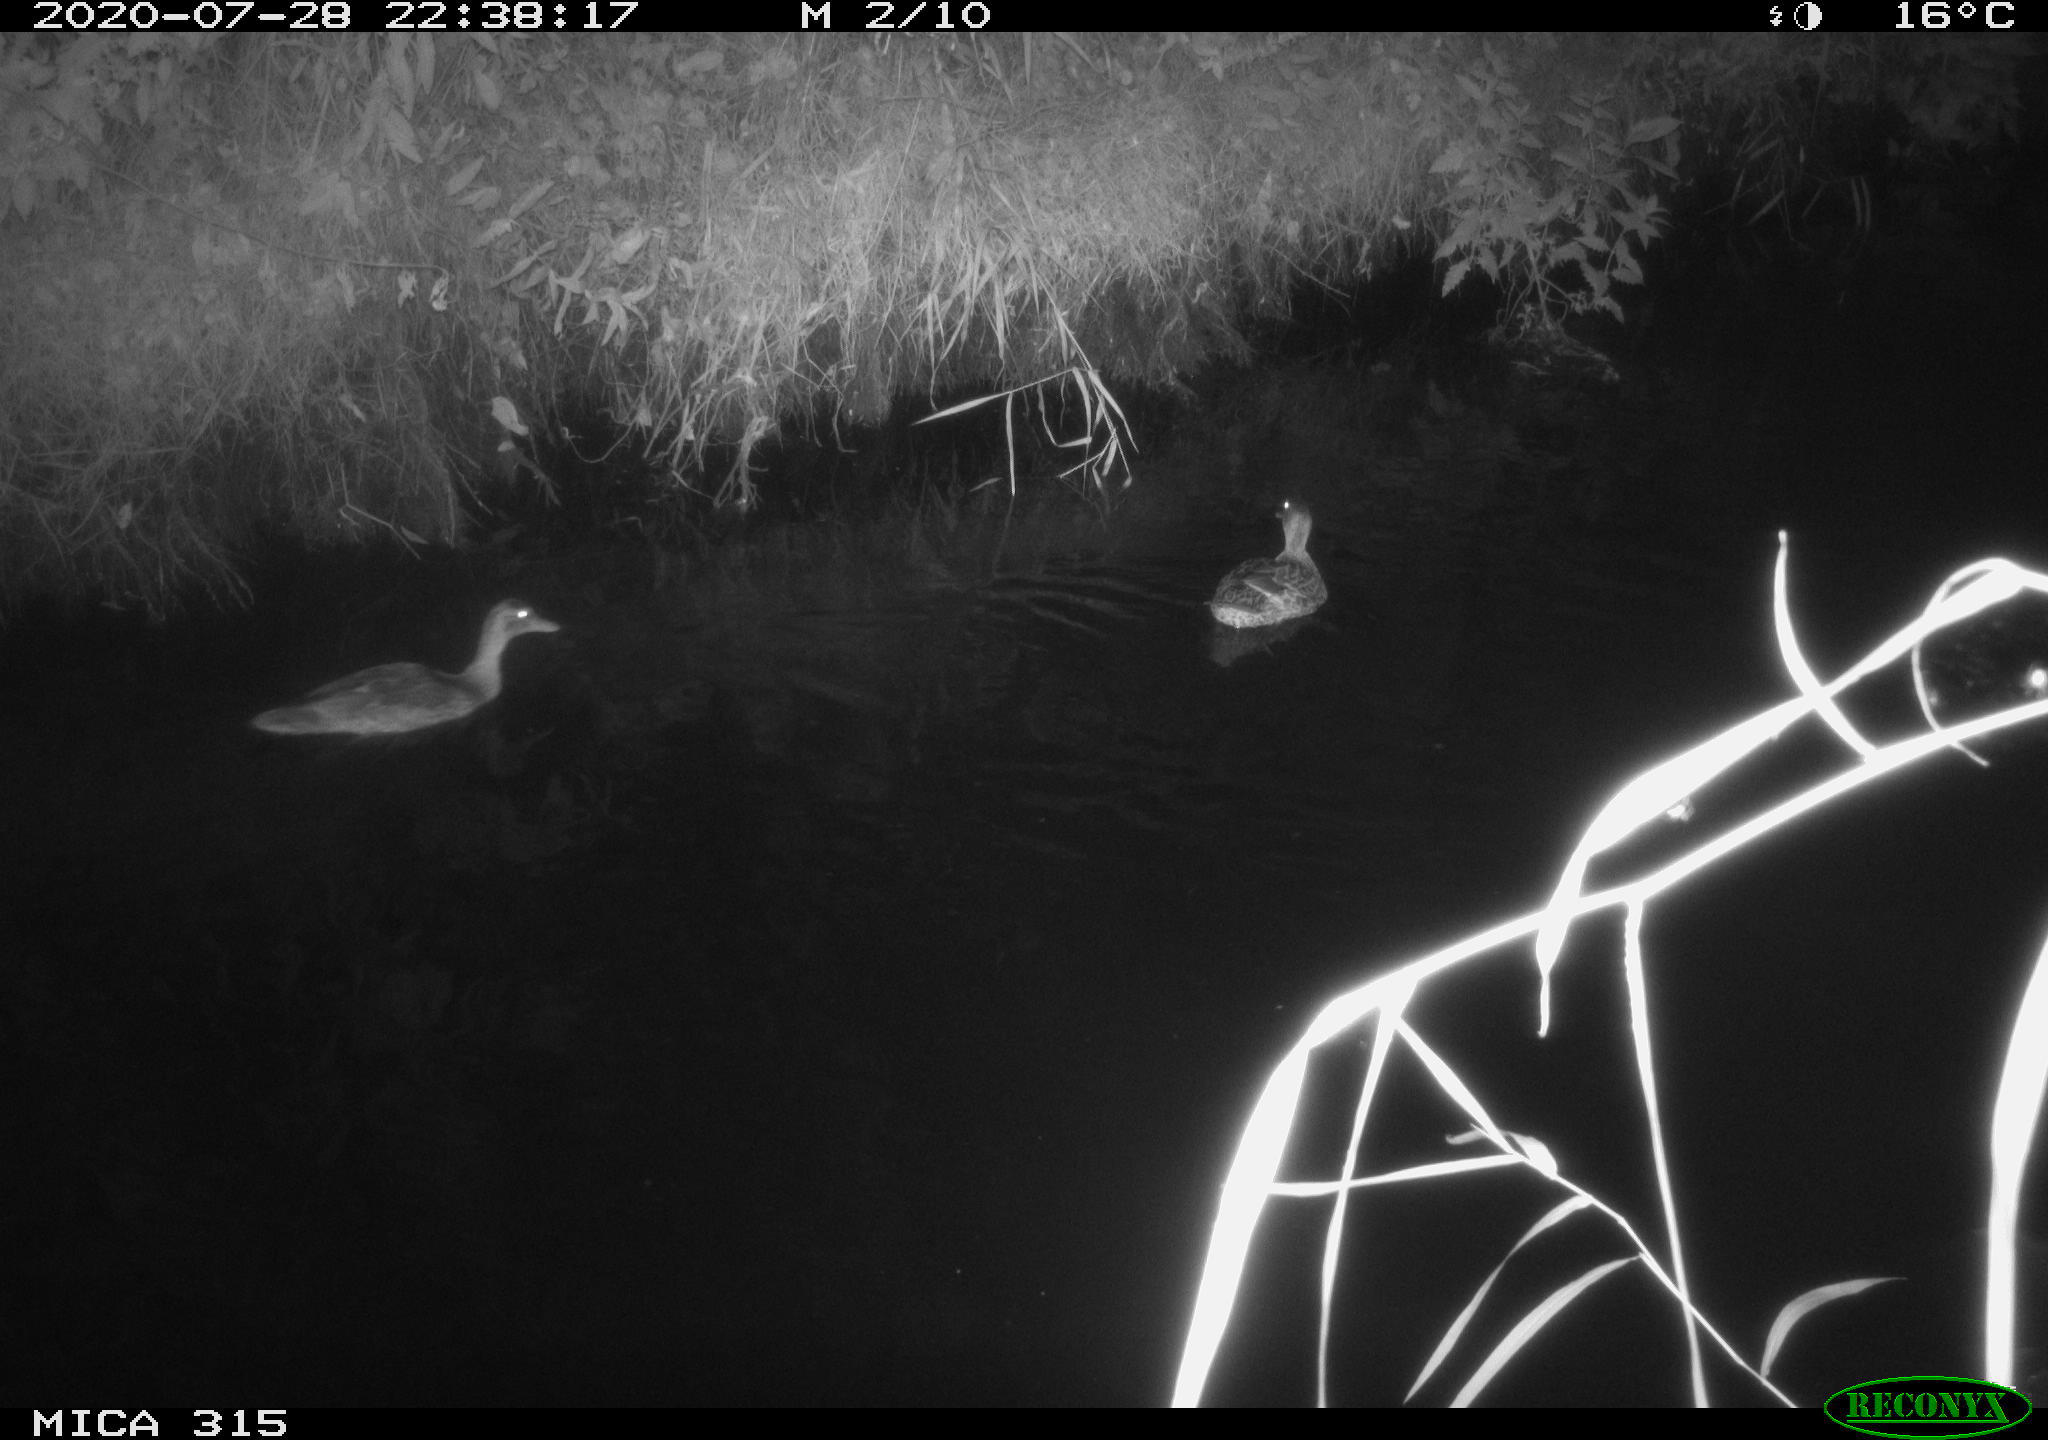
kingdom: Animalia
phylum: Chordata
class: Aves
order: Anseriformes
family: Anatidae
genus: Anas
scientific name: Anas platyrhynchos
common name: Mallard
